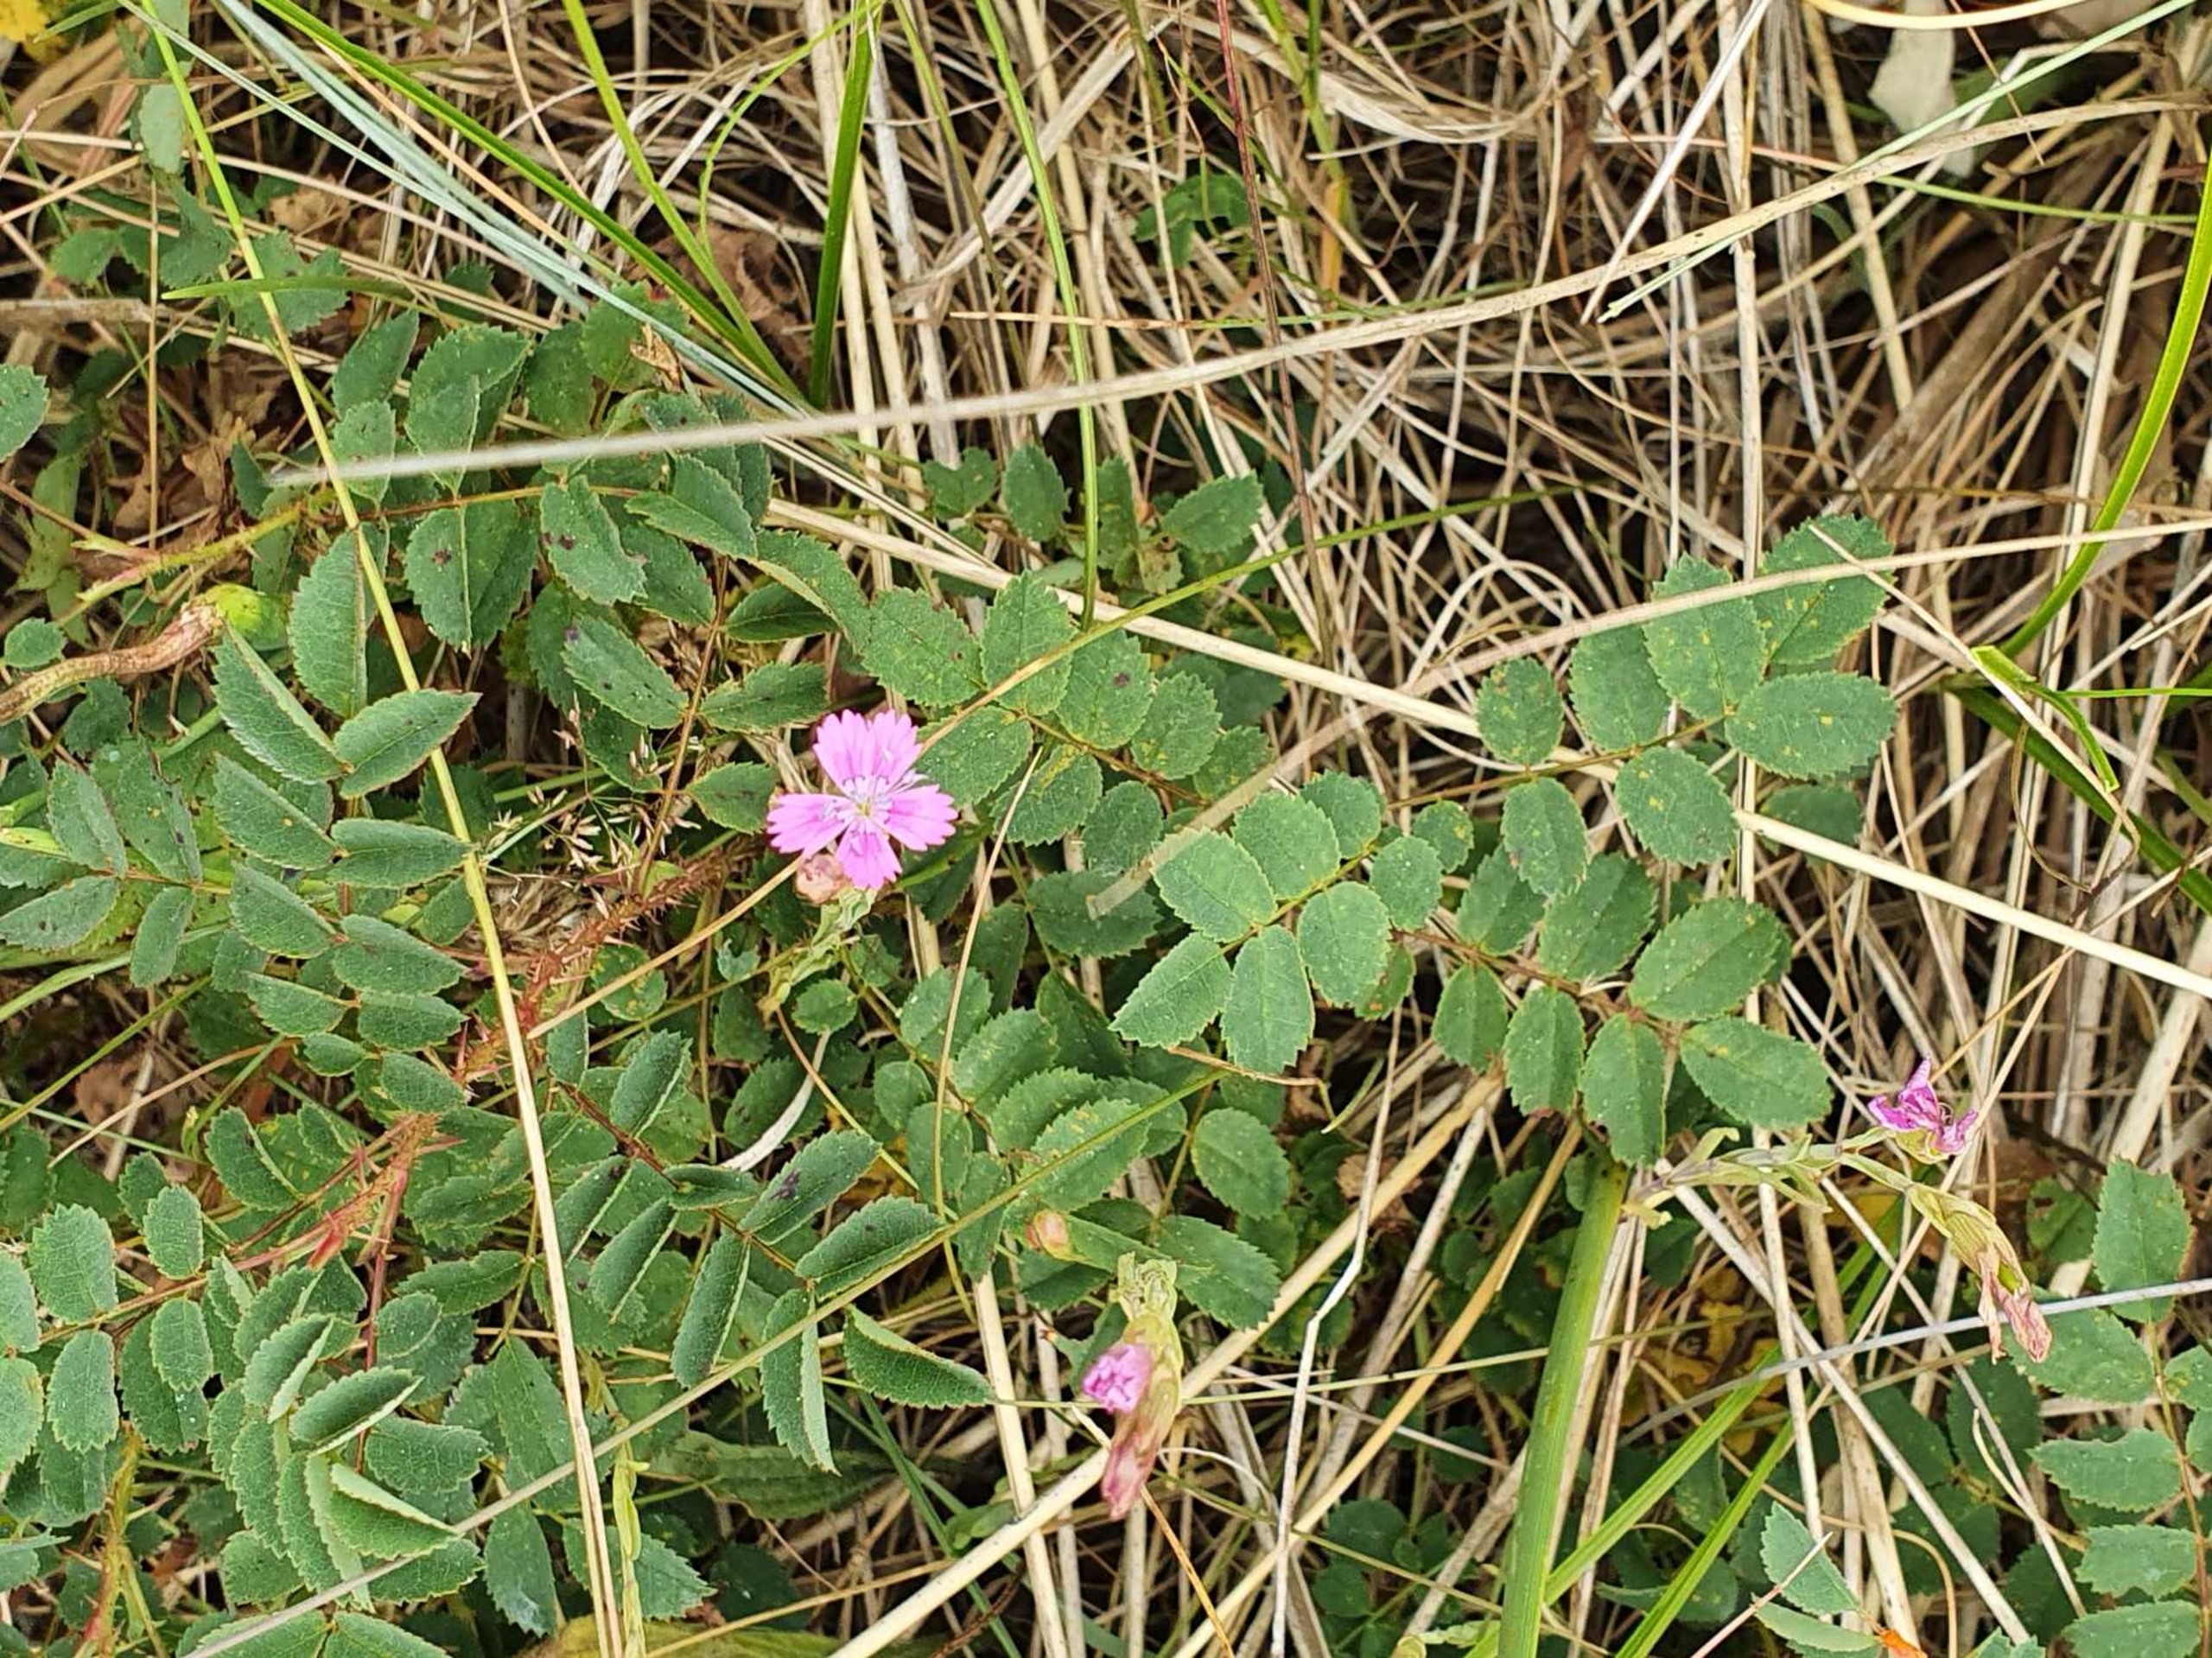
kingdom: Plantae
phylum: Tracheophyta
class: Magnoliopsida
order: Caryophyllales
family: Caryophyllaceae
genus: Dianthus
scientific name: Dianthus deltoides
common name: Bakke-nellike
